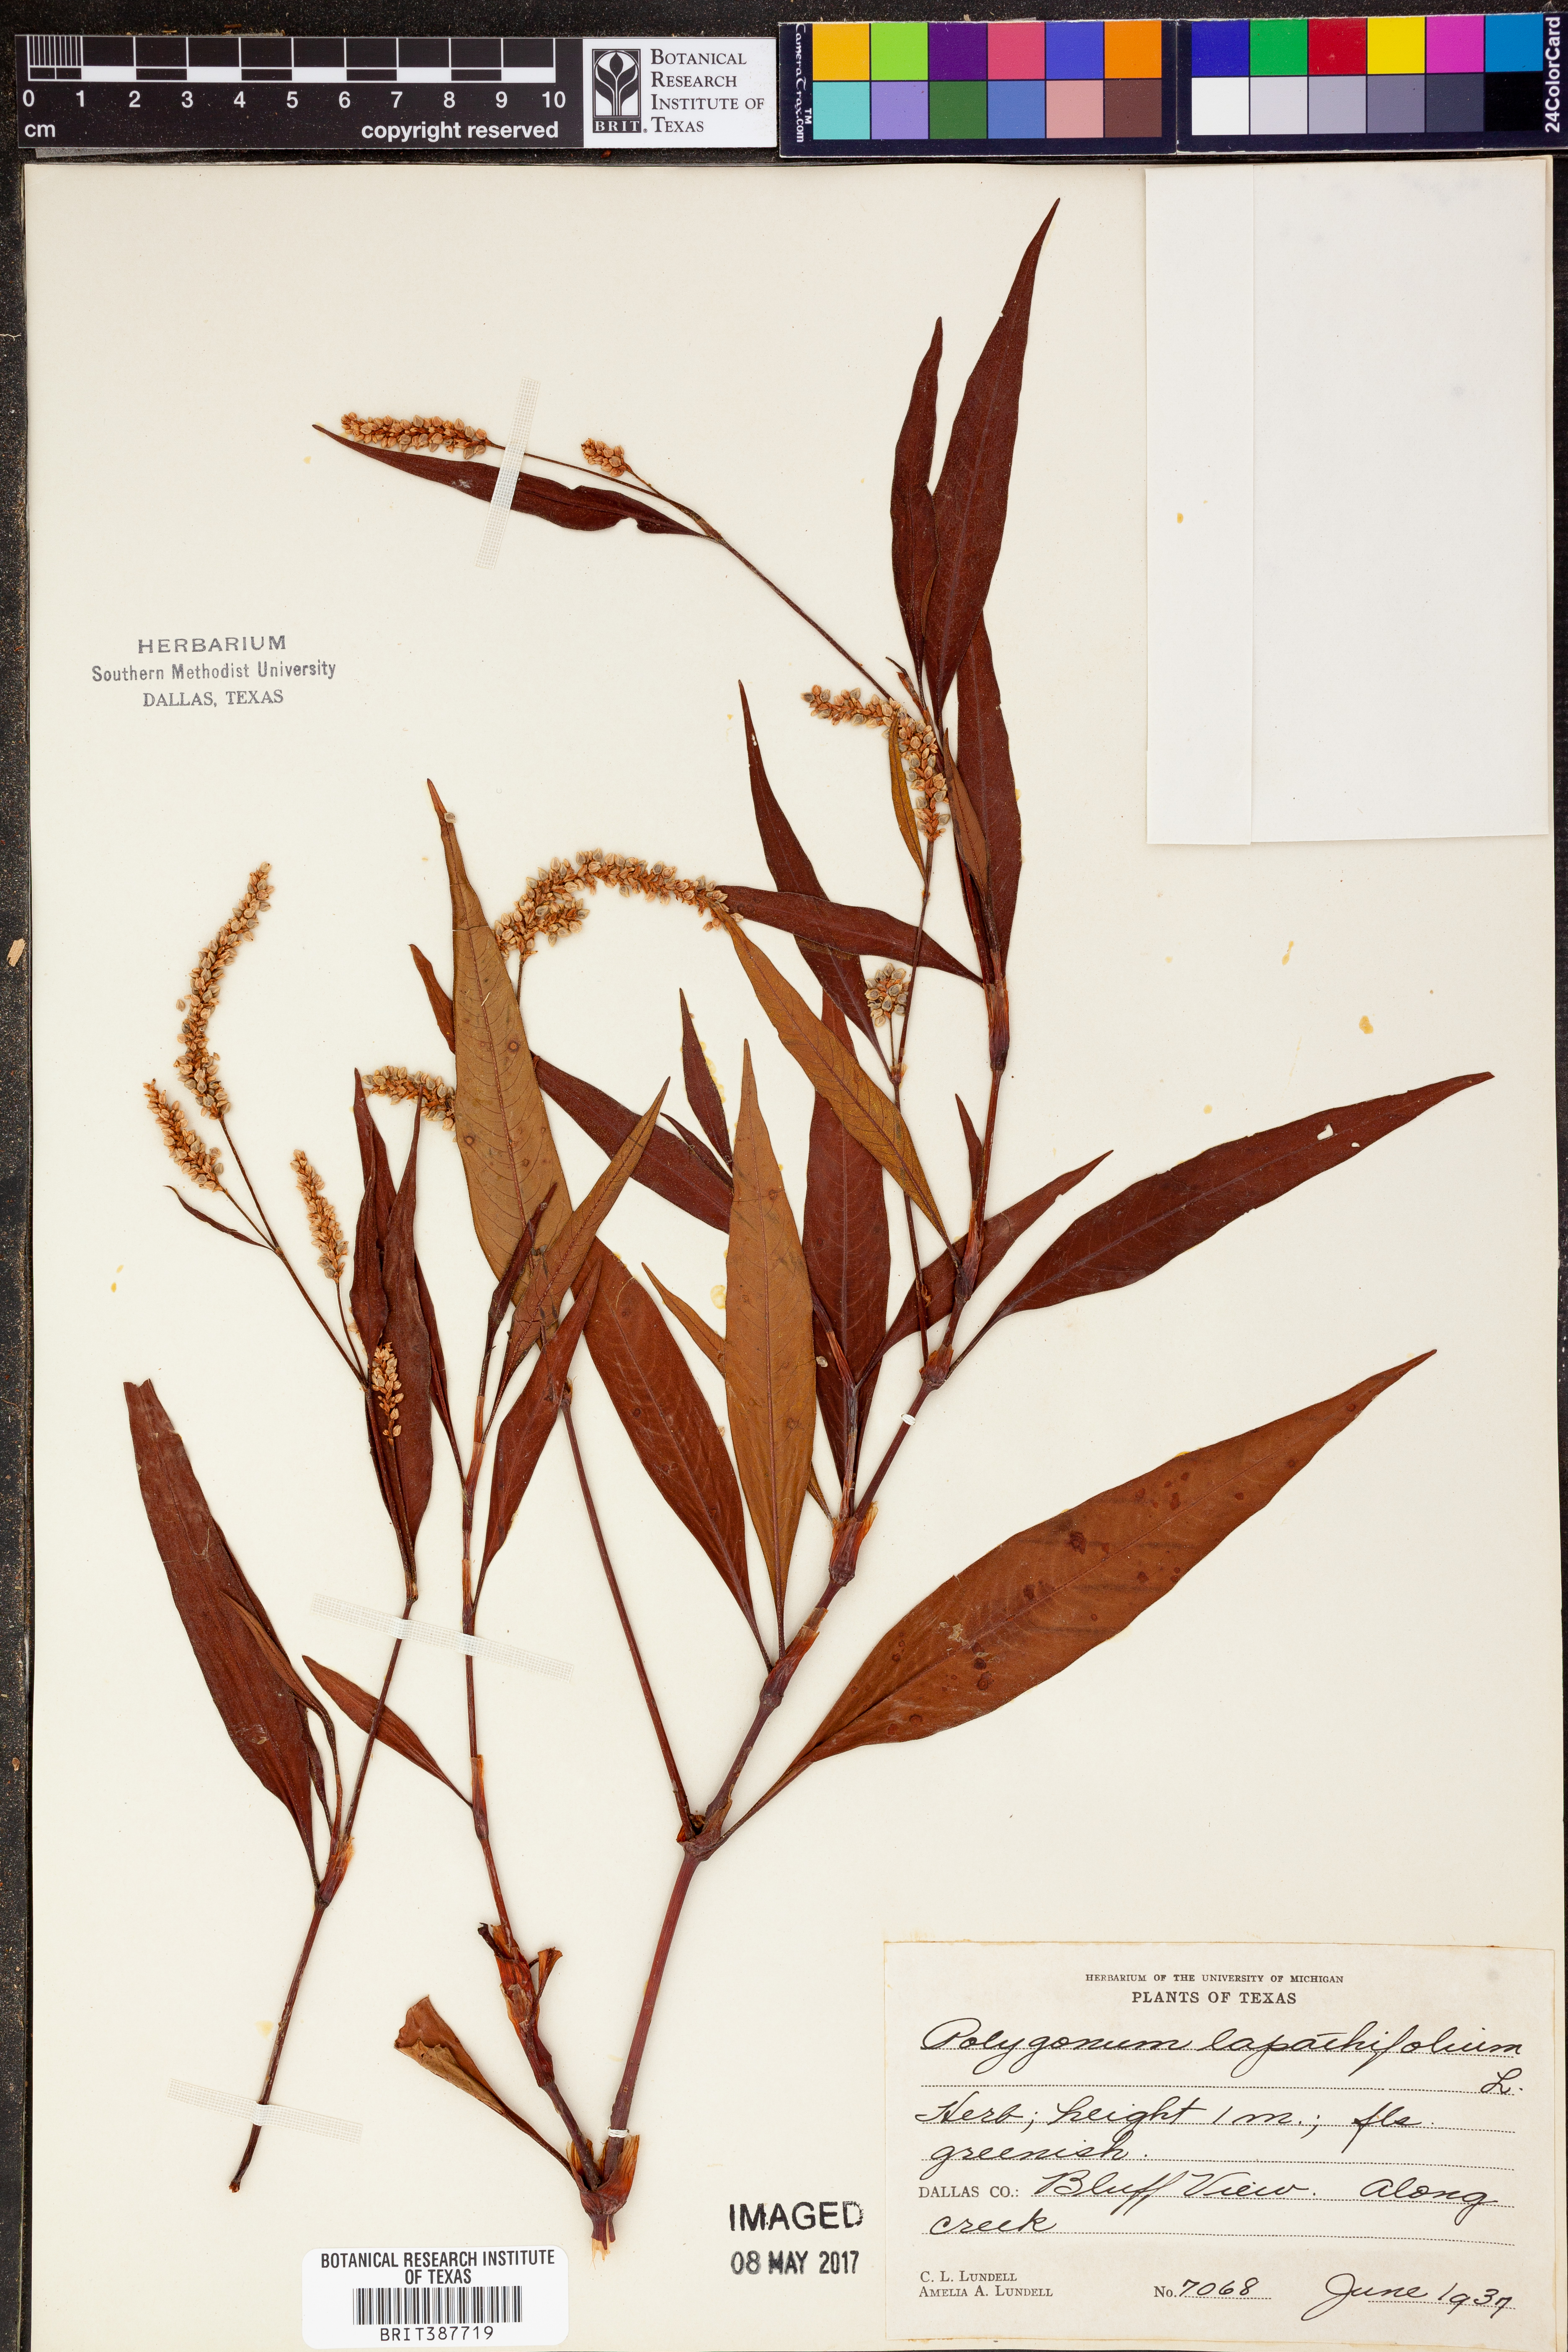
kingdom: Plantae
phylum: Tracheophyta
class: Magnoliopsida
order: Caryophyllales
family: Polygonaceae
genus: Persicaria
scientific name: Persicaria lapathifolia
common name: Curlytop knotweed
